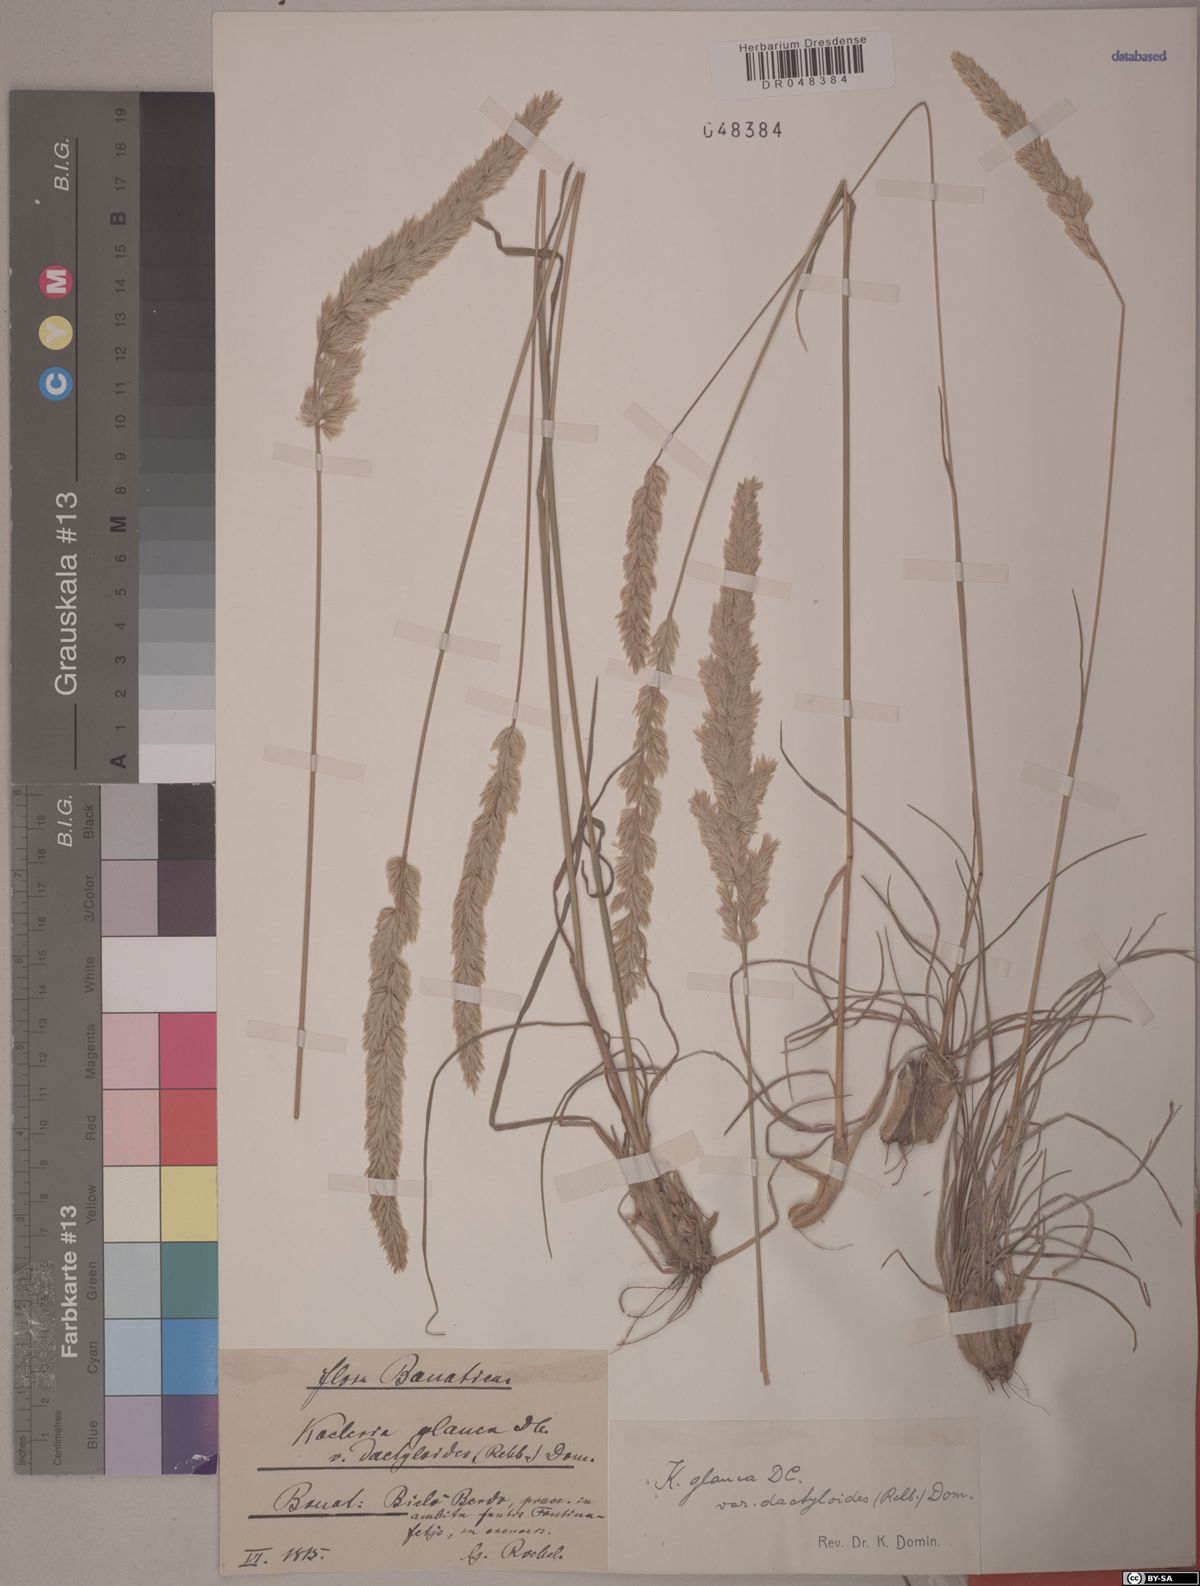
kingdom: Plantae
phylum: Tracheophyta
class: Liliopsida
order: Poales
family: Poaceae
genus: Koeleria
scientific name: Koeleria glauca
